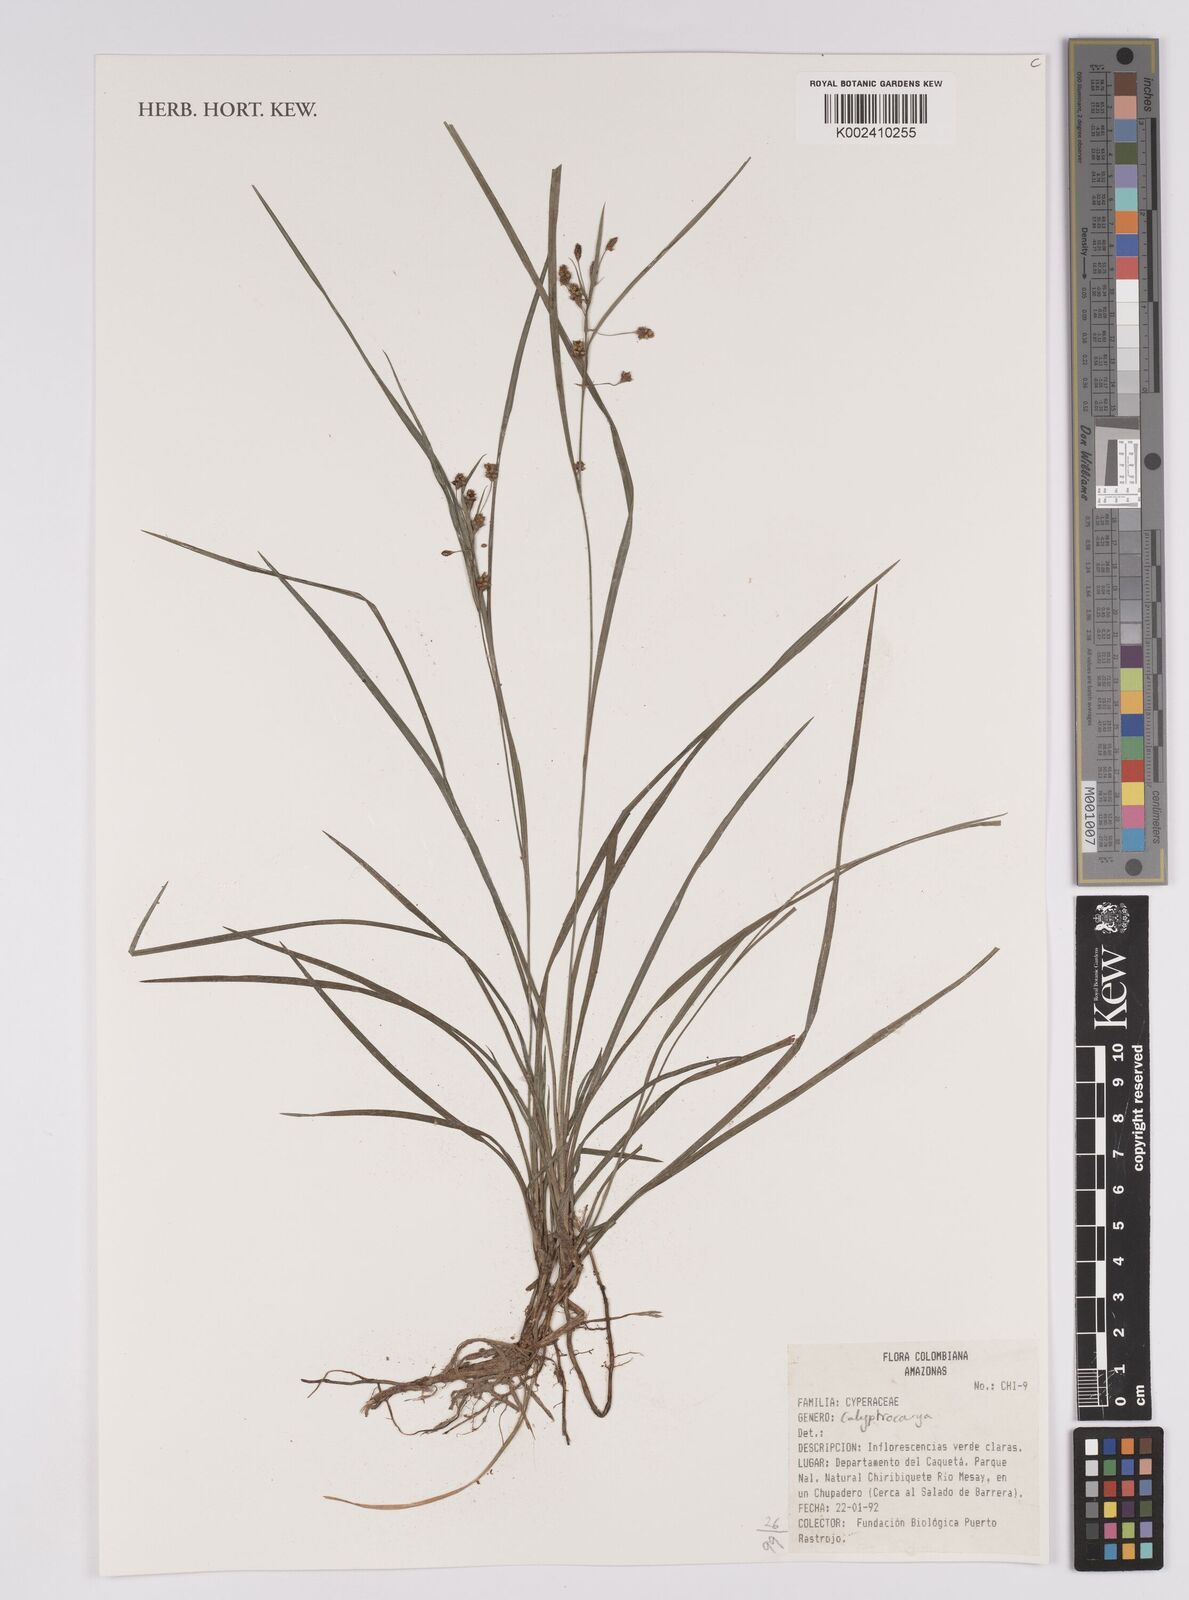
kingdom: Plantae
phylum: Tracheophyta
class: Liliopsida
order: Poales
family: Cyperaceae
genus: Calyptrocarya
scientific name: Calyptrocarya
